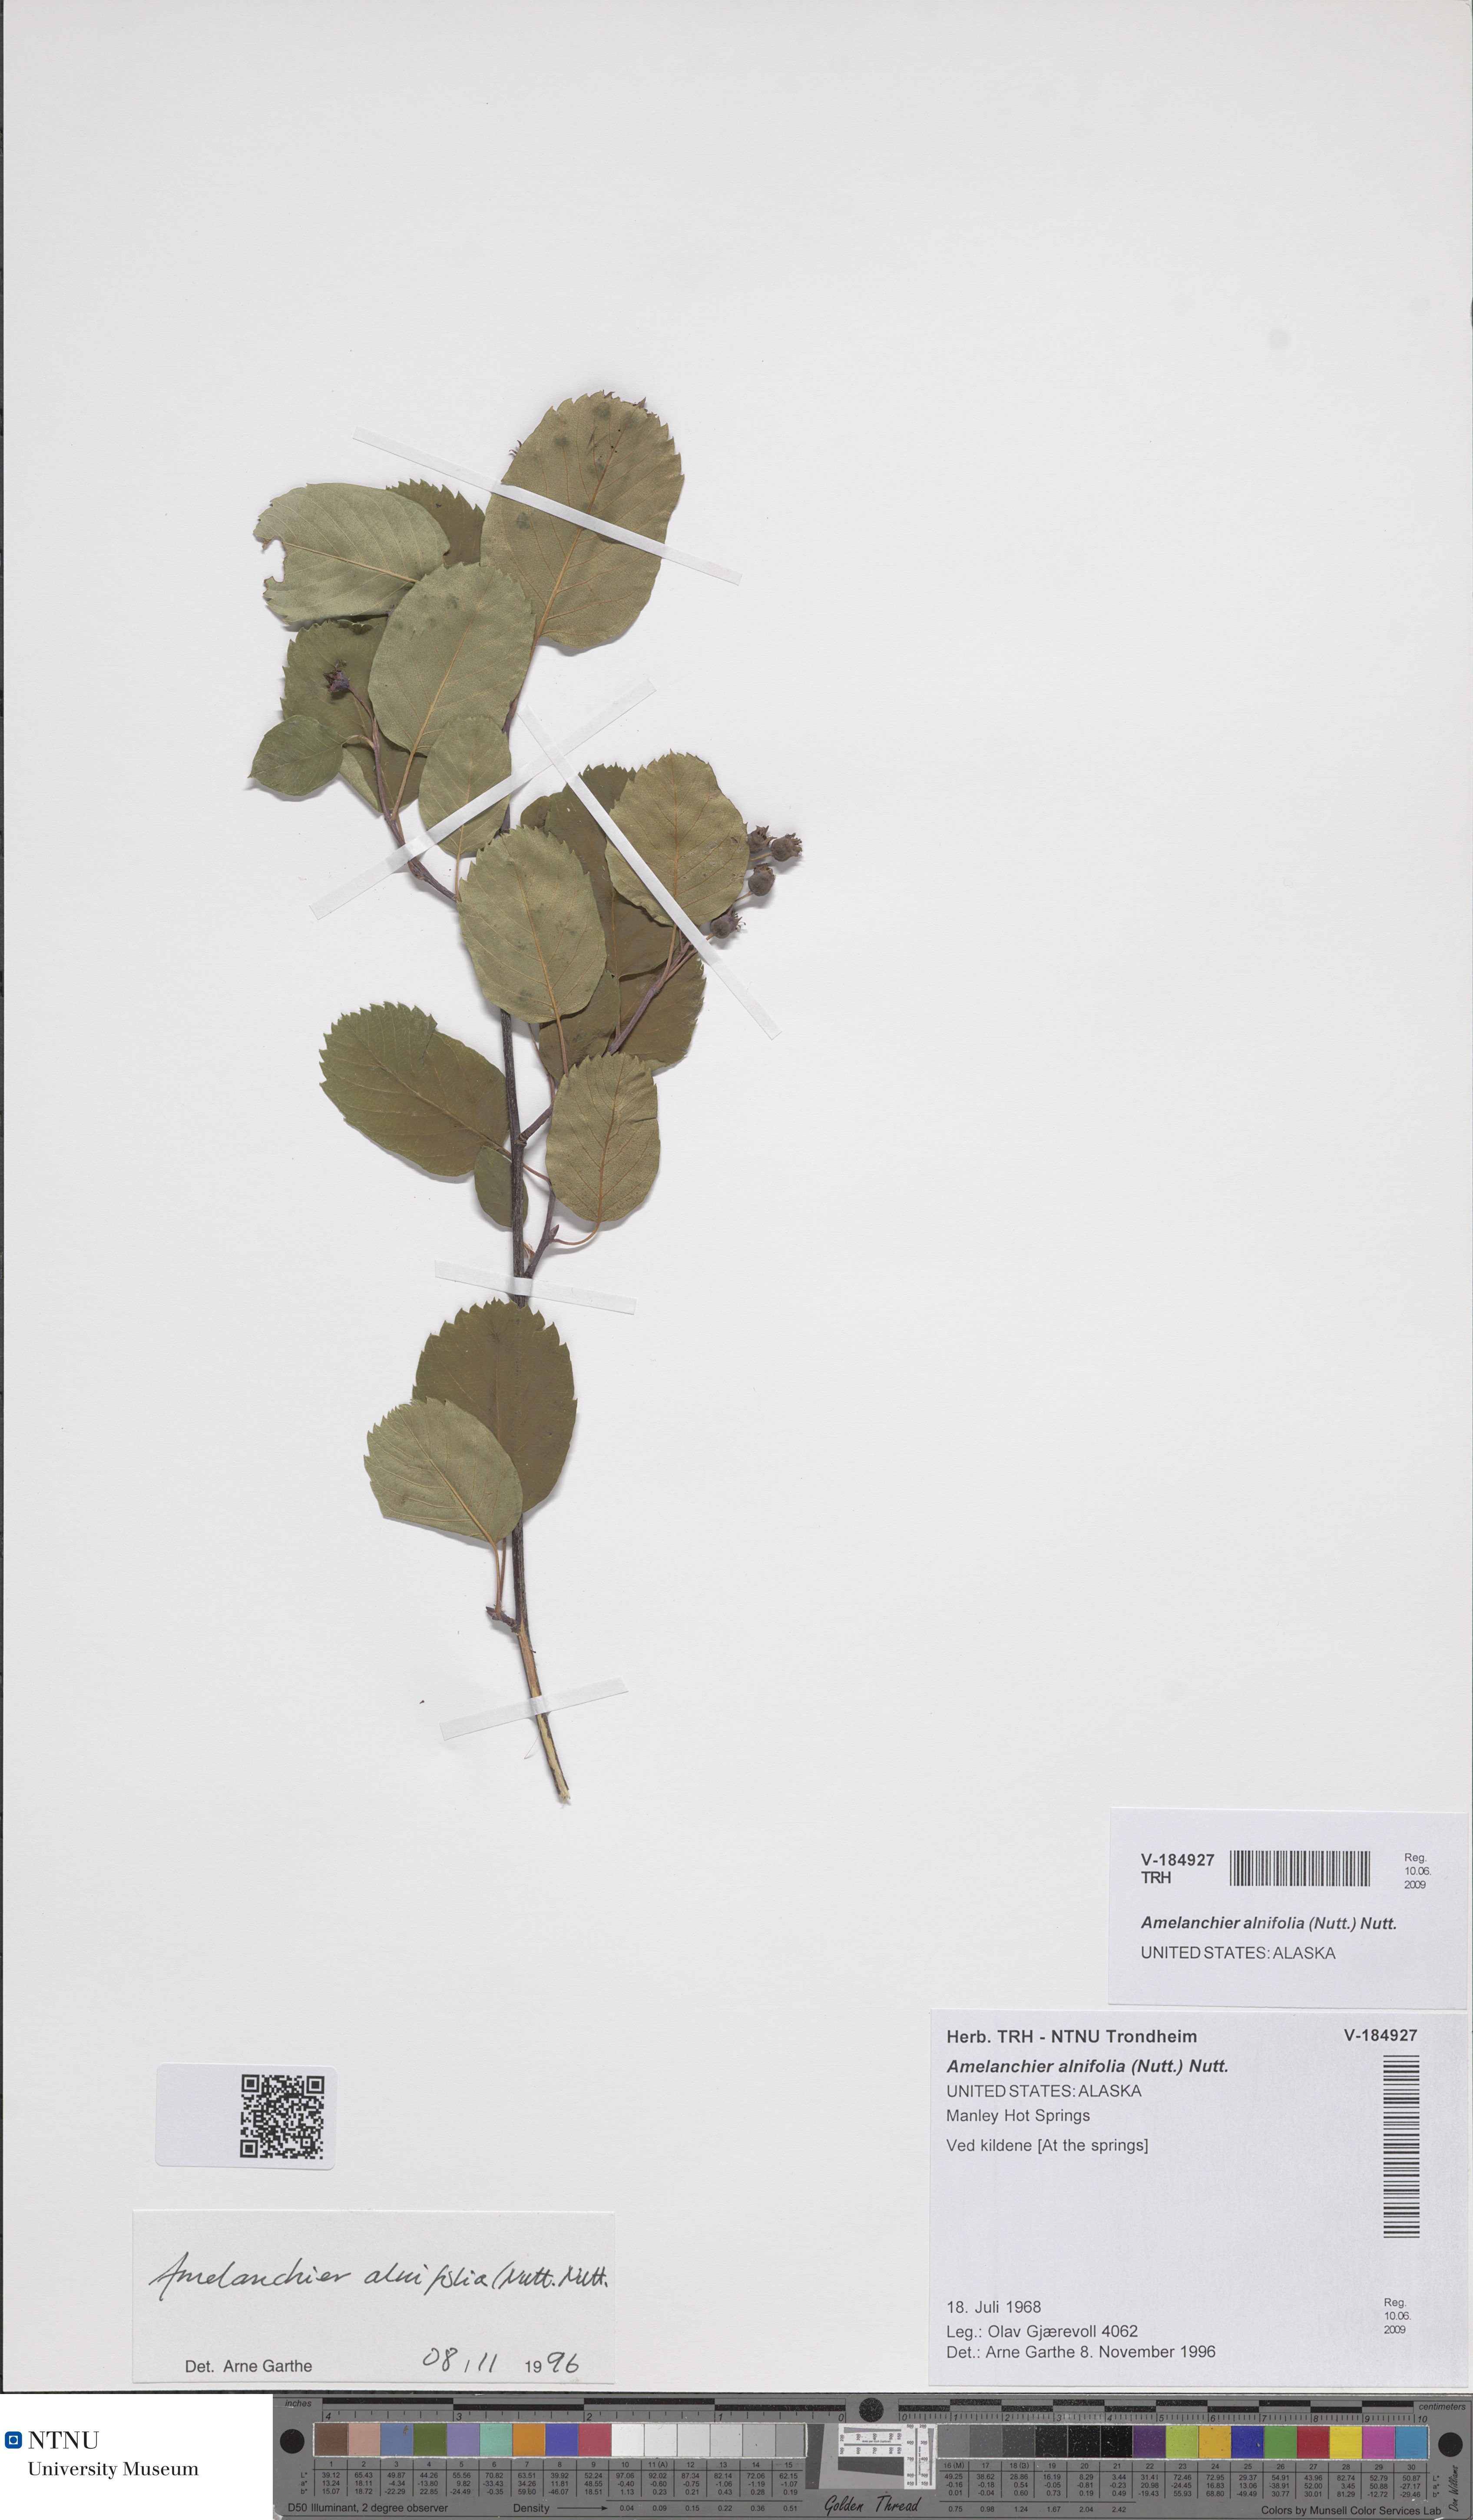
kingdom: Plantae
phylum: Tracheophyta
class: Magnoliopsida
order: Rosales
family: Rosaceae
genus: Amelanchier
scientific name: Amelanchier alnifolia
